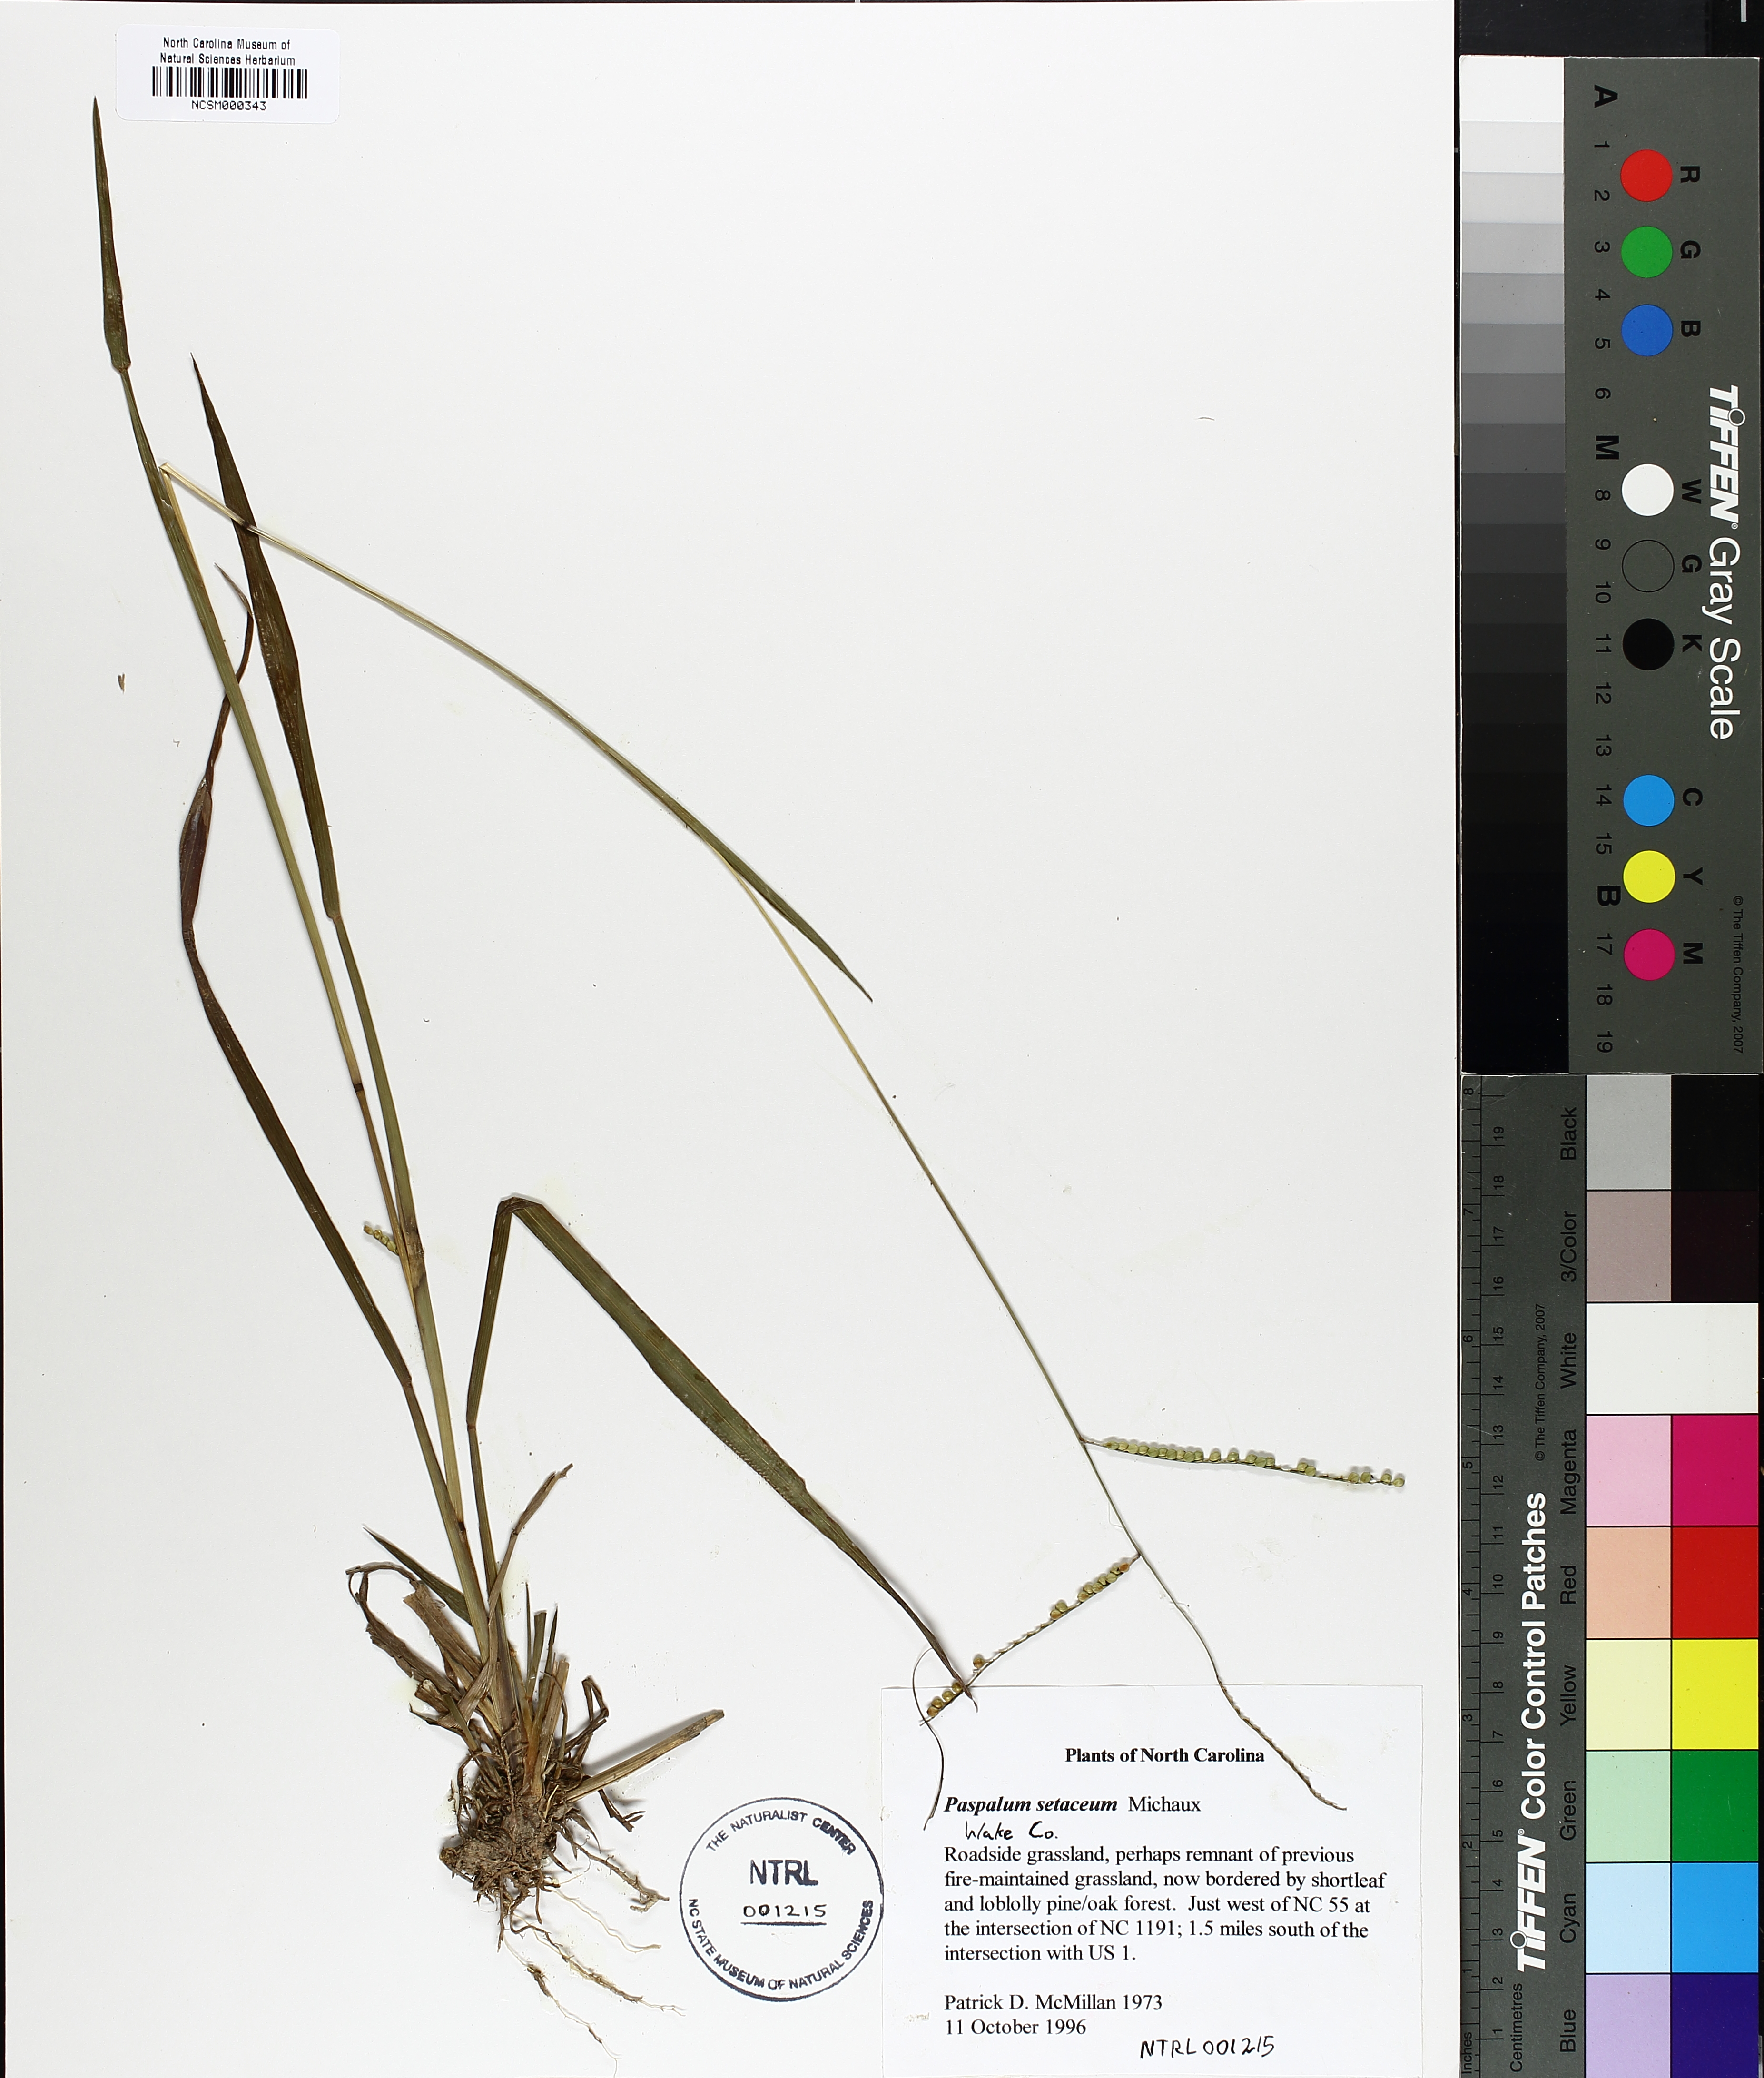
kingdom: Plantae
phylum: Tracheophyta
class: Liliopsida
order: Poales
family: Poaceae
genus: Paspalum
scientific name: Paspalum setaceum
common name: Slender paspalum
